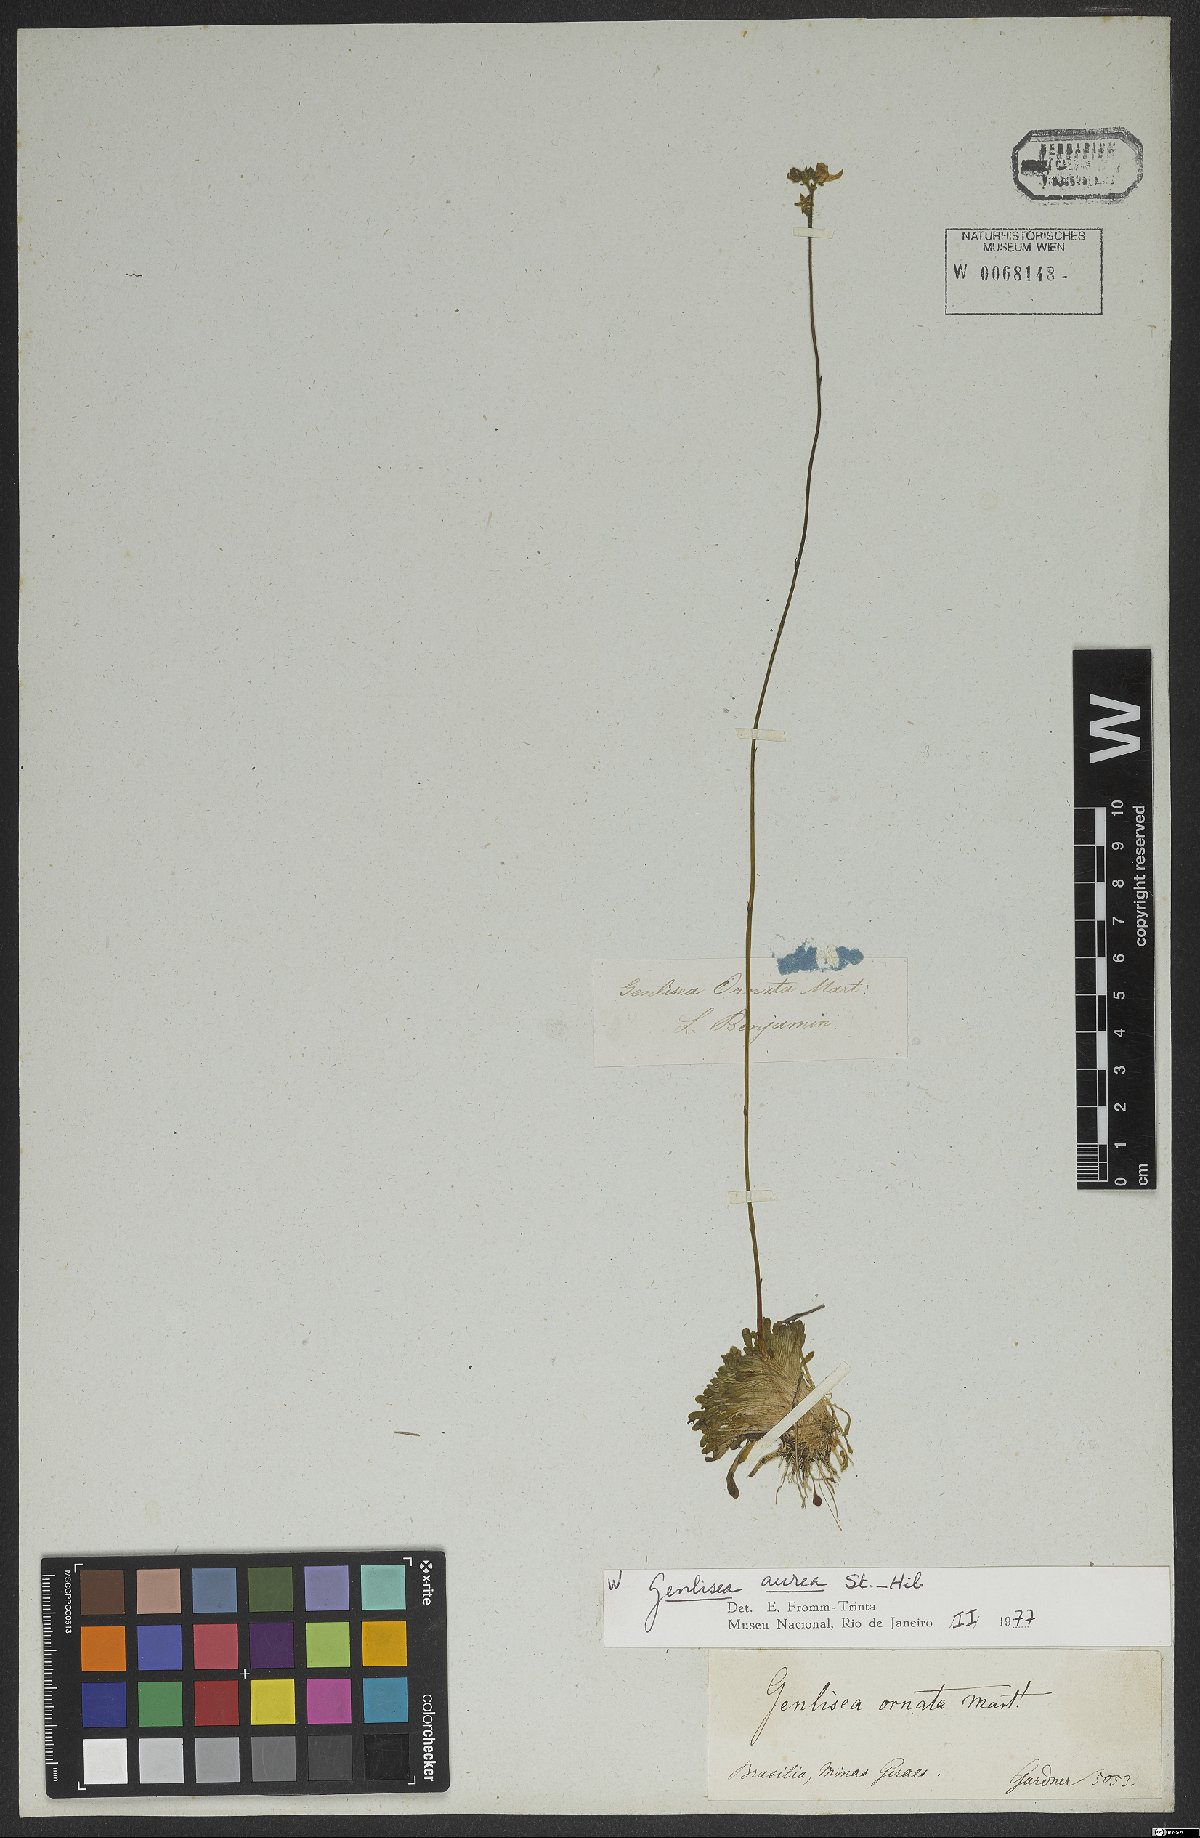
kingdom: Plantae
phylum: Tracheophyta
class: Magnoliopsida
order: Lamiales
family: Lentibulariaceae
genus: Genlisea
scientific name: Genlisea aurea
